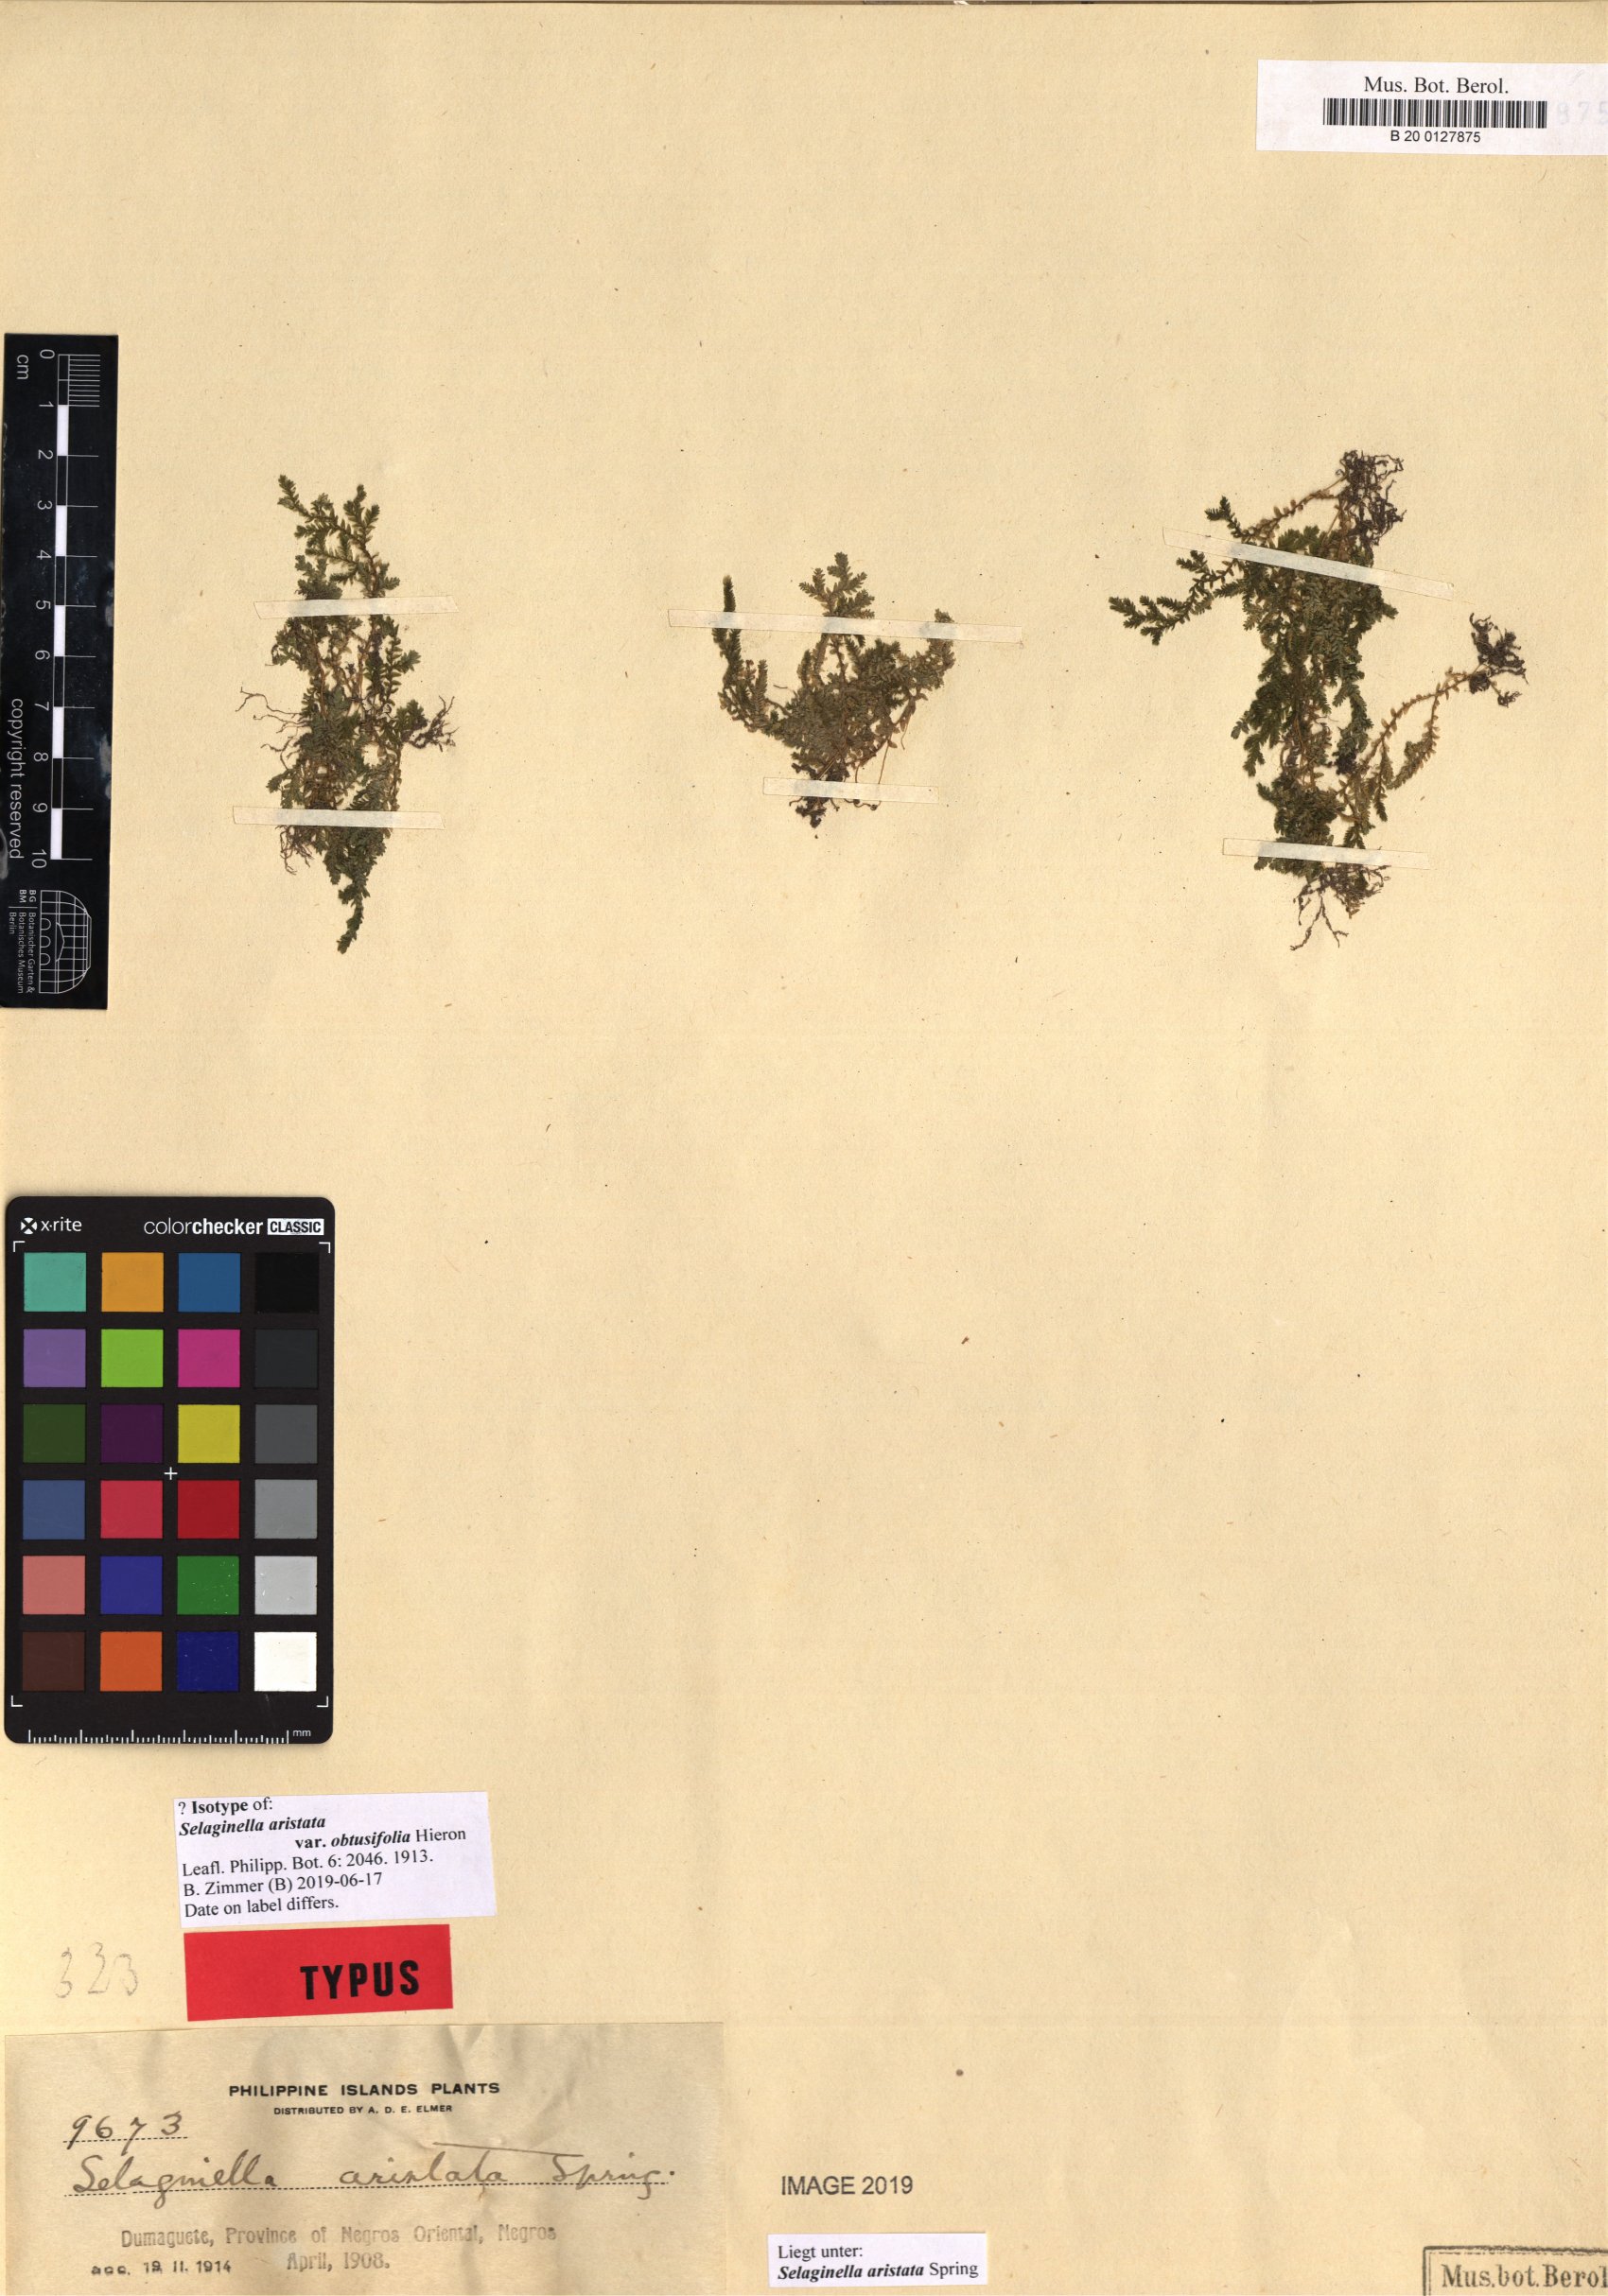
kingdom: Plantae
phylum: Tracheophyta
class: Lycopodiopsida
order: Selaginellales
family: Selaginellaceae
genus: Selaginella
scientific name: Selaginella aristata
